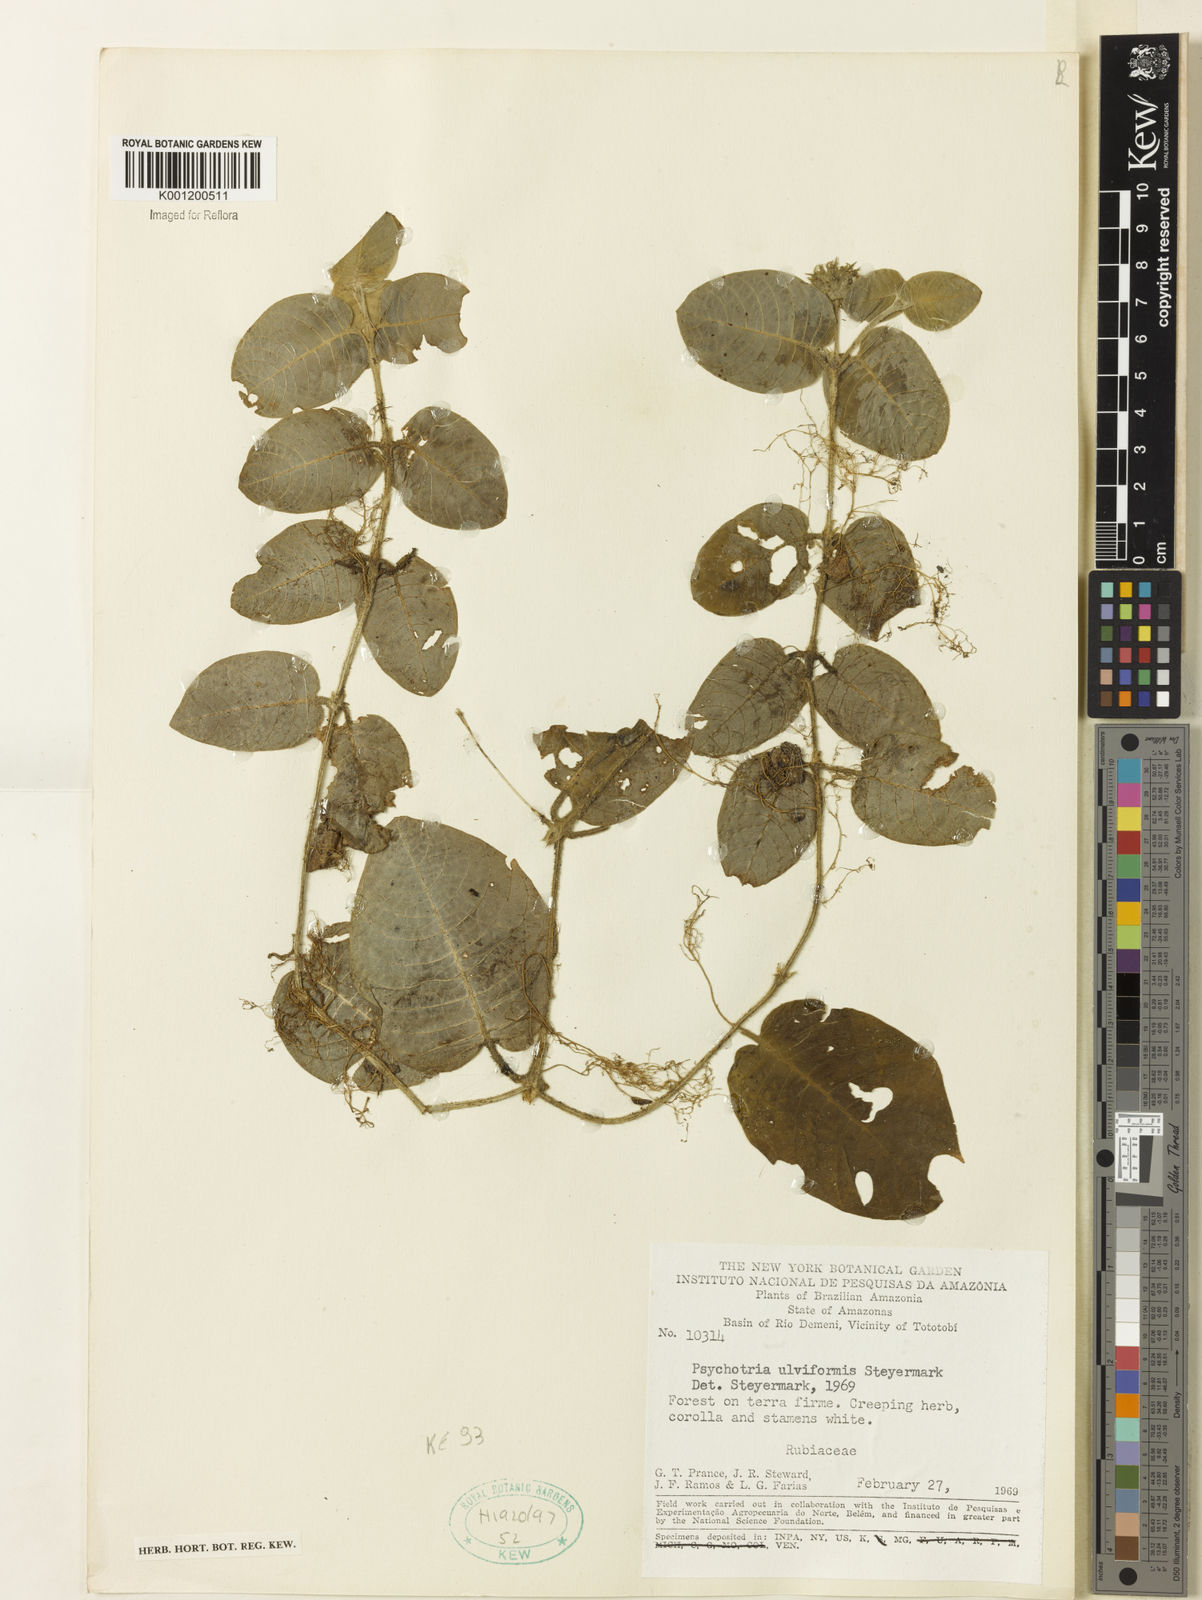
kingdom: Plantae
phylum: Tracheophyta
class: Magnoliopsida
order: Gentianales
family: Rubiaceae
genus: Palicourea
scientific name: Palicourea alba
